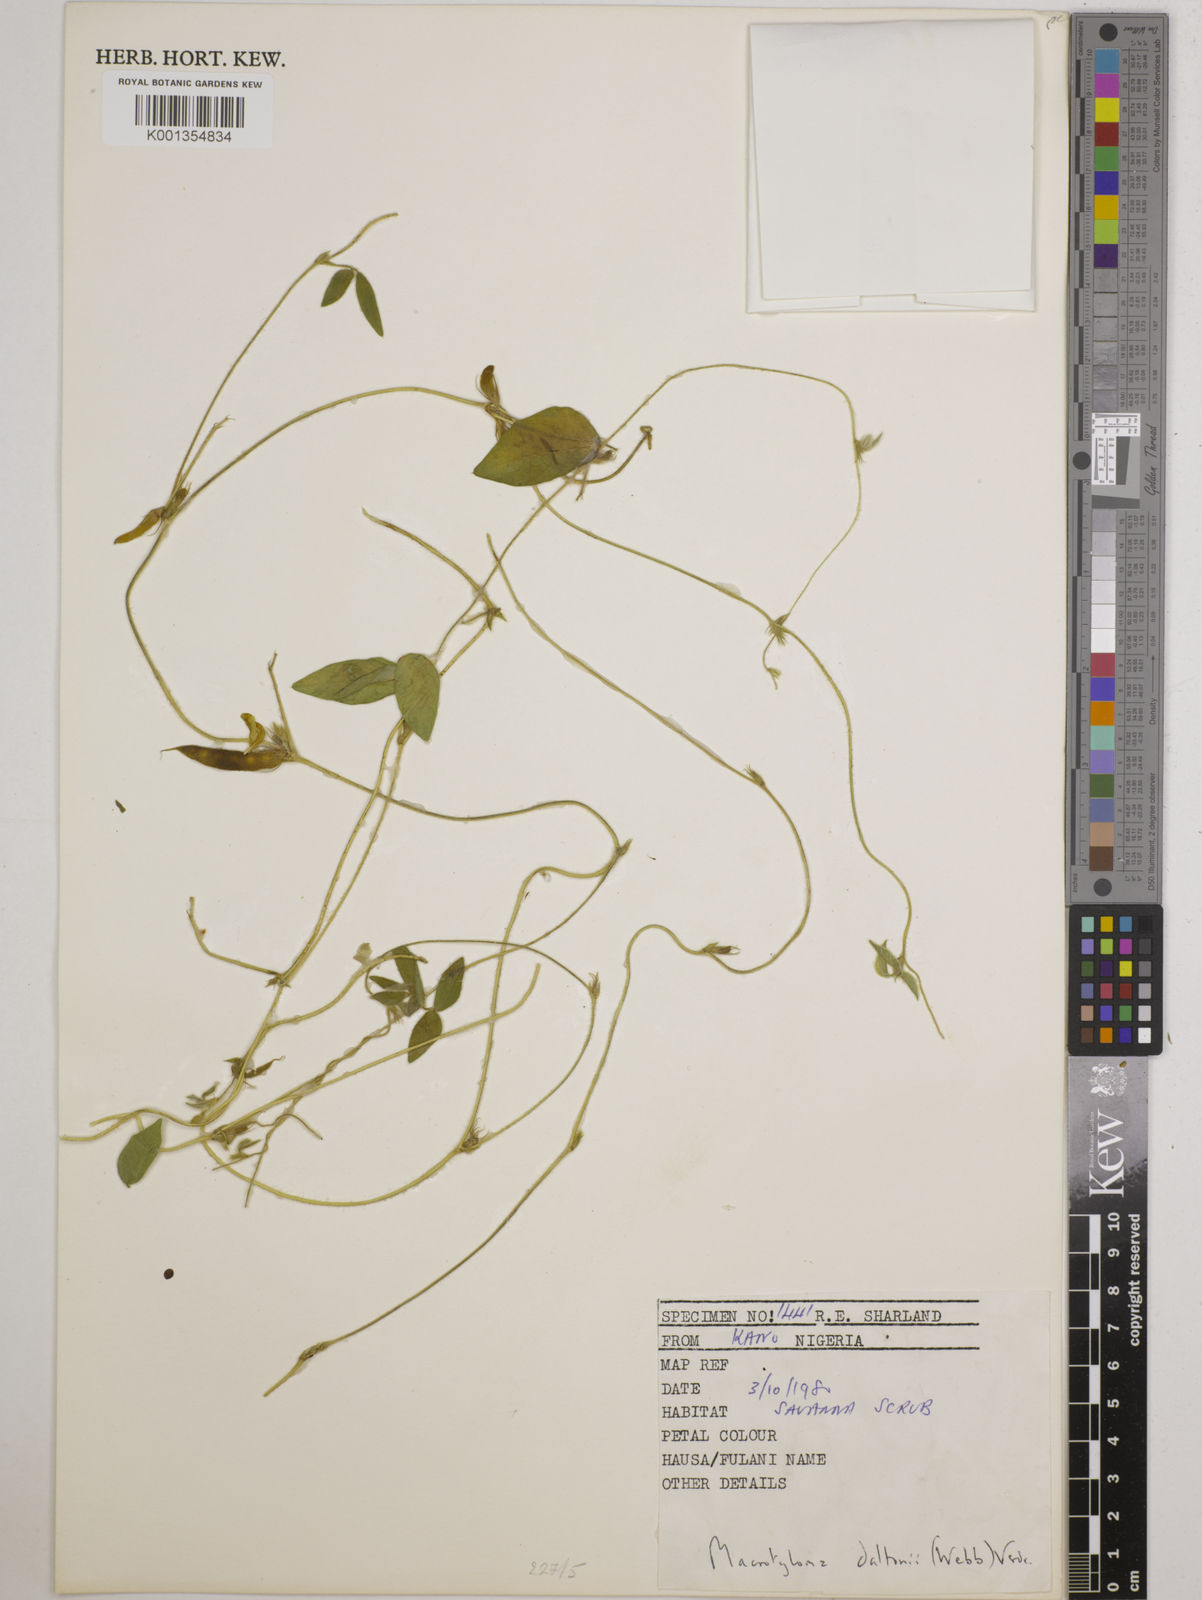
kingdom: Plantae
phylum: Tracheophyta
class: Magnoliopsida
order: Fabales
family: Fabaceae
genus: Macrotyloma
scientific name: Macrotyloma daltonii
